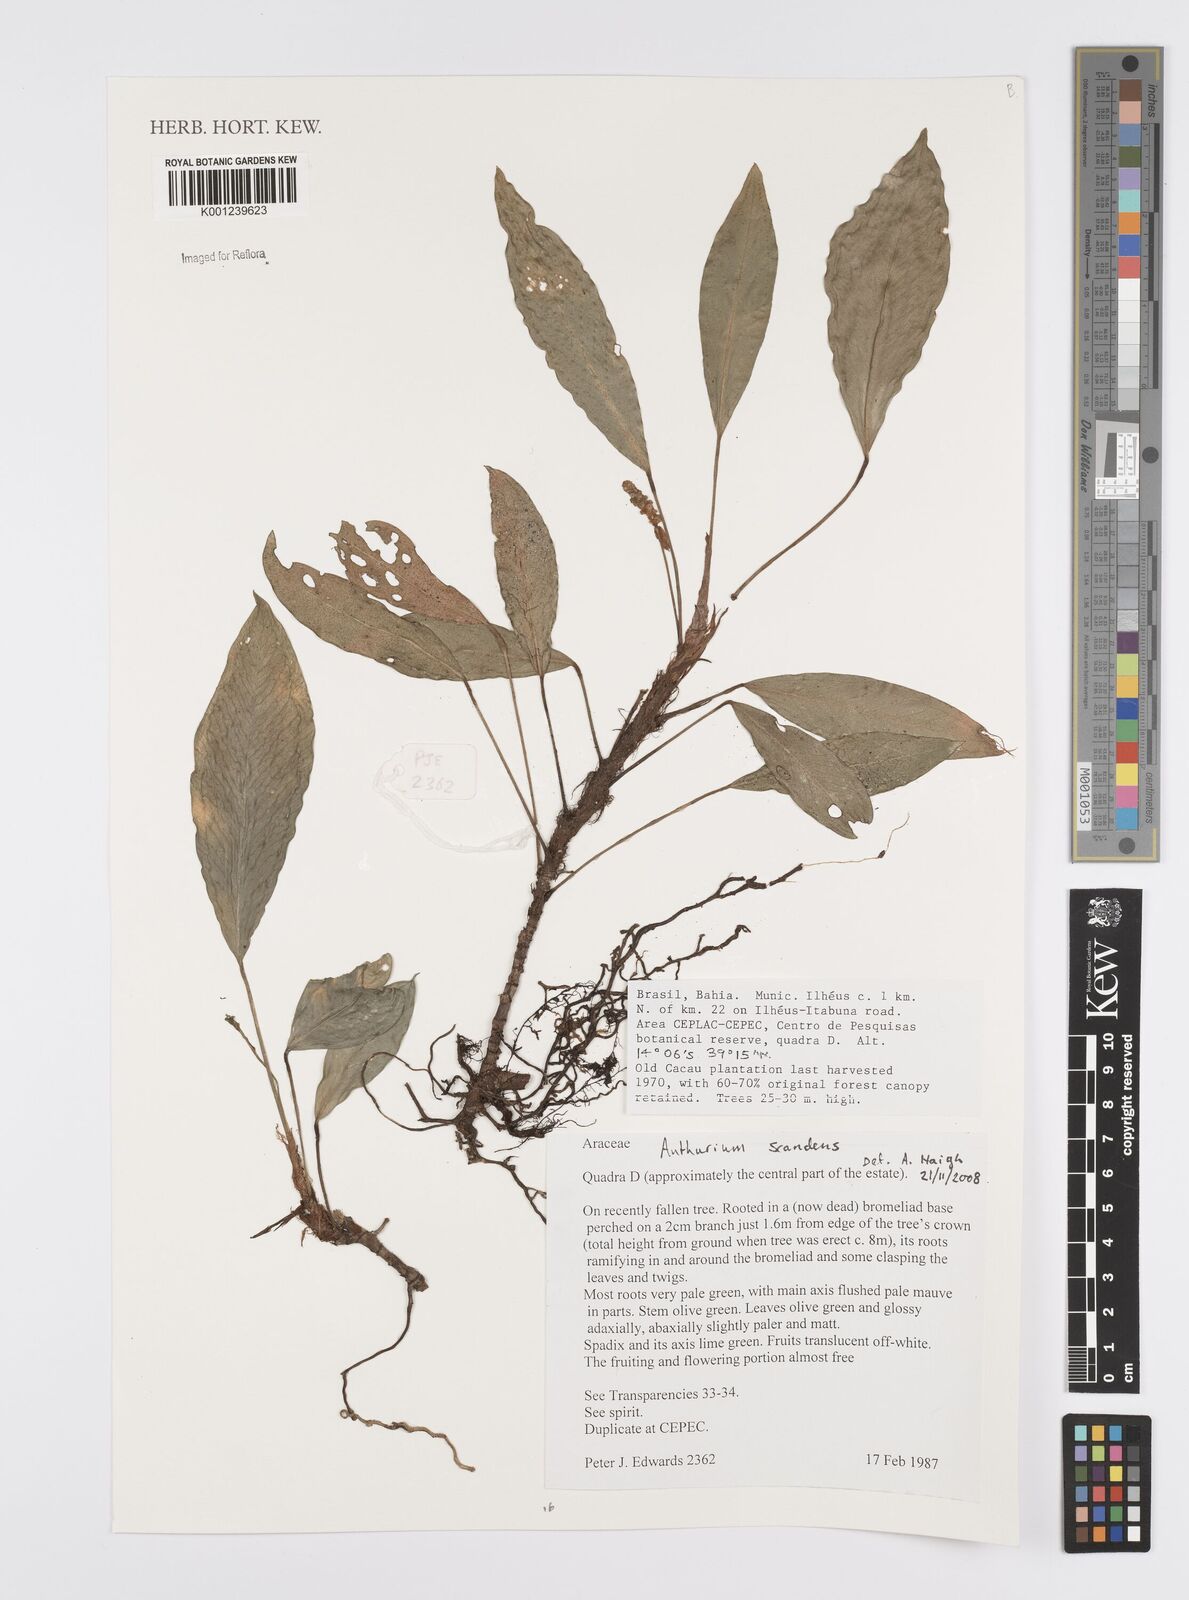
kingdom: Plantae
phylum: Tracheophyta
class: Liliopsida
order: Alismatales
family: Araceae
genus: Anthurium
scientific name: Anthurium scandens
